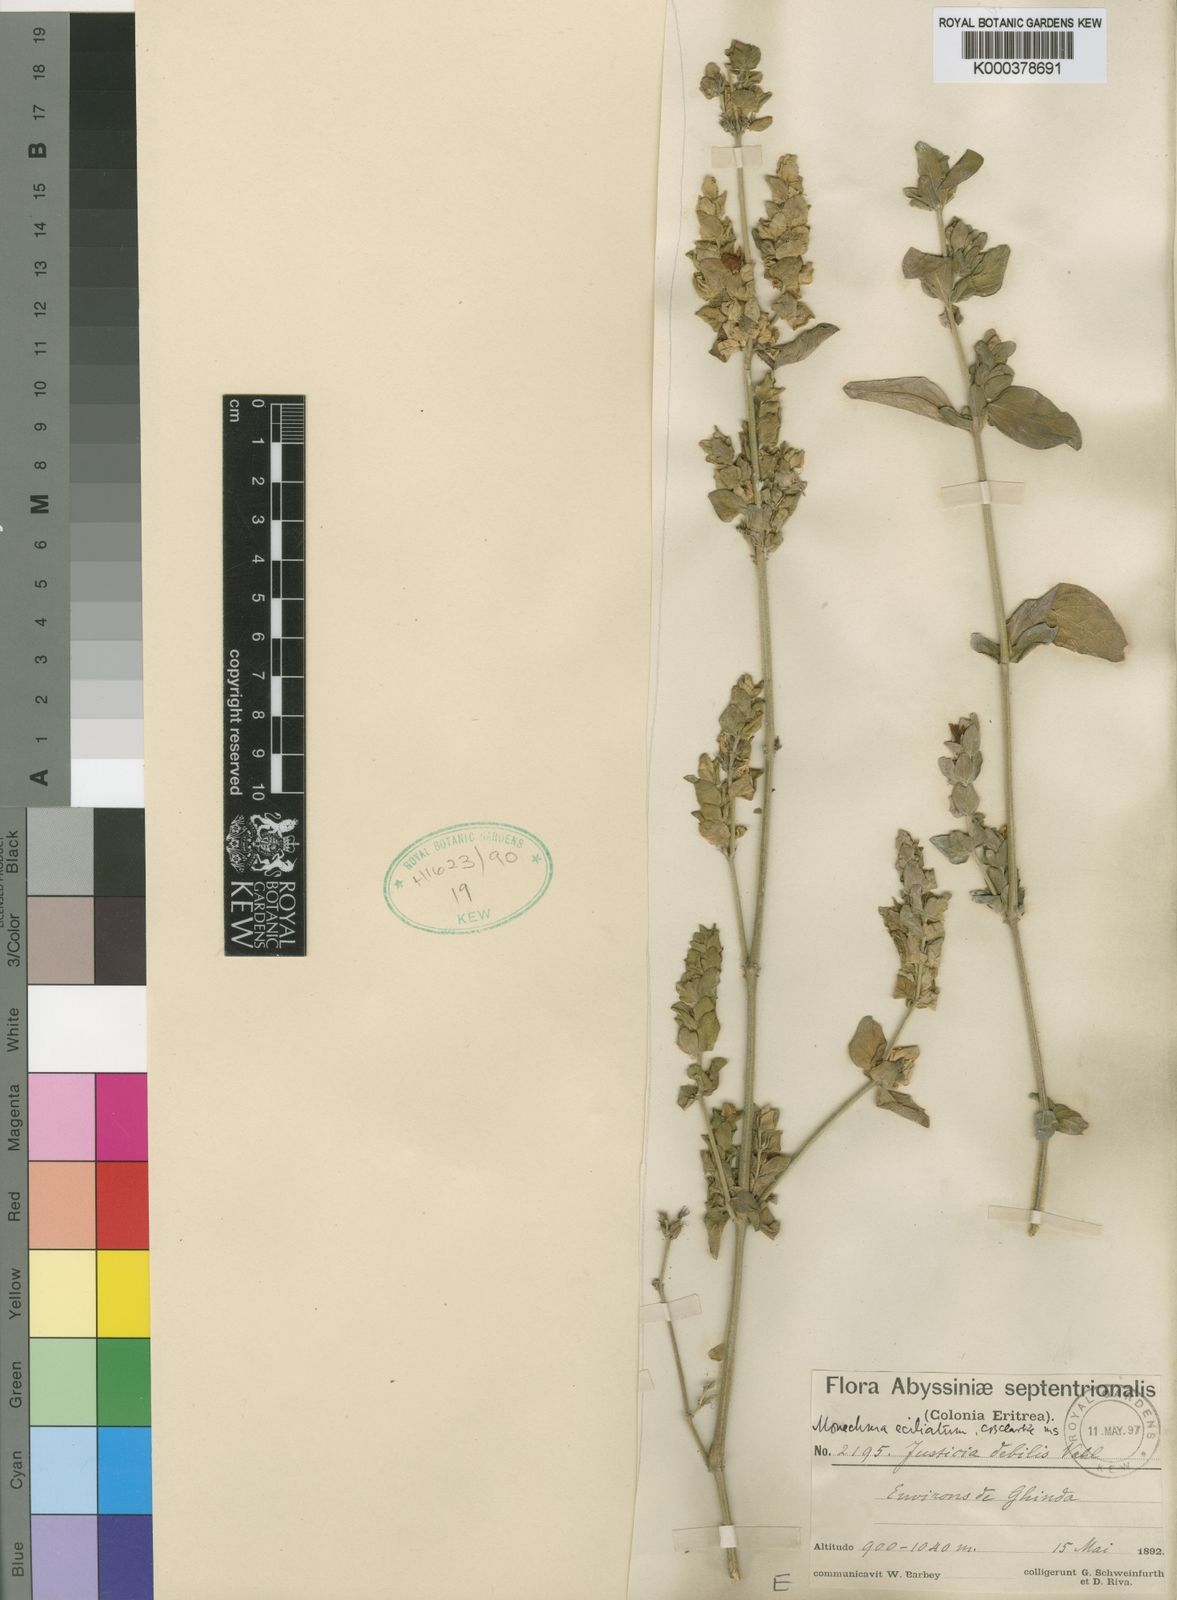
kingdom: Plantae
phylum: Tracheophyta
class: Magnoliopsida
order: Lamiales
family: Acanthaceae
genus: Monechma
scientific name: Monechma debile
